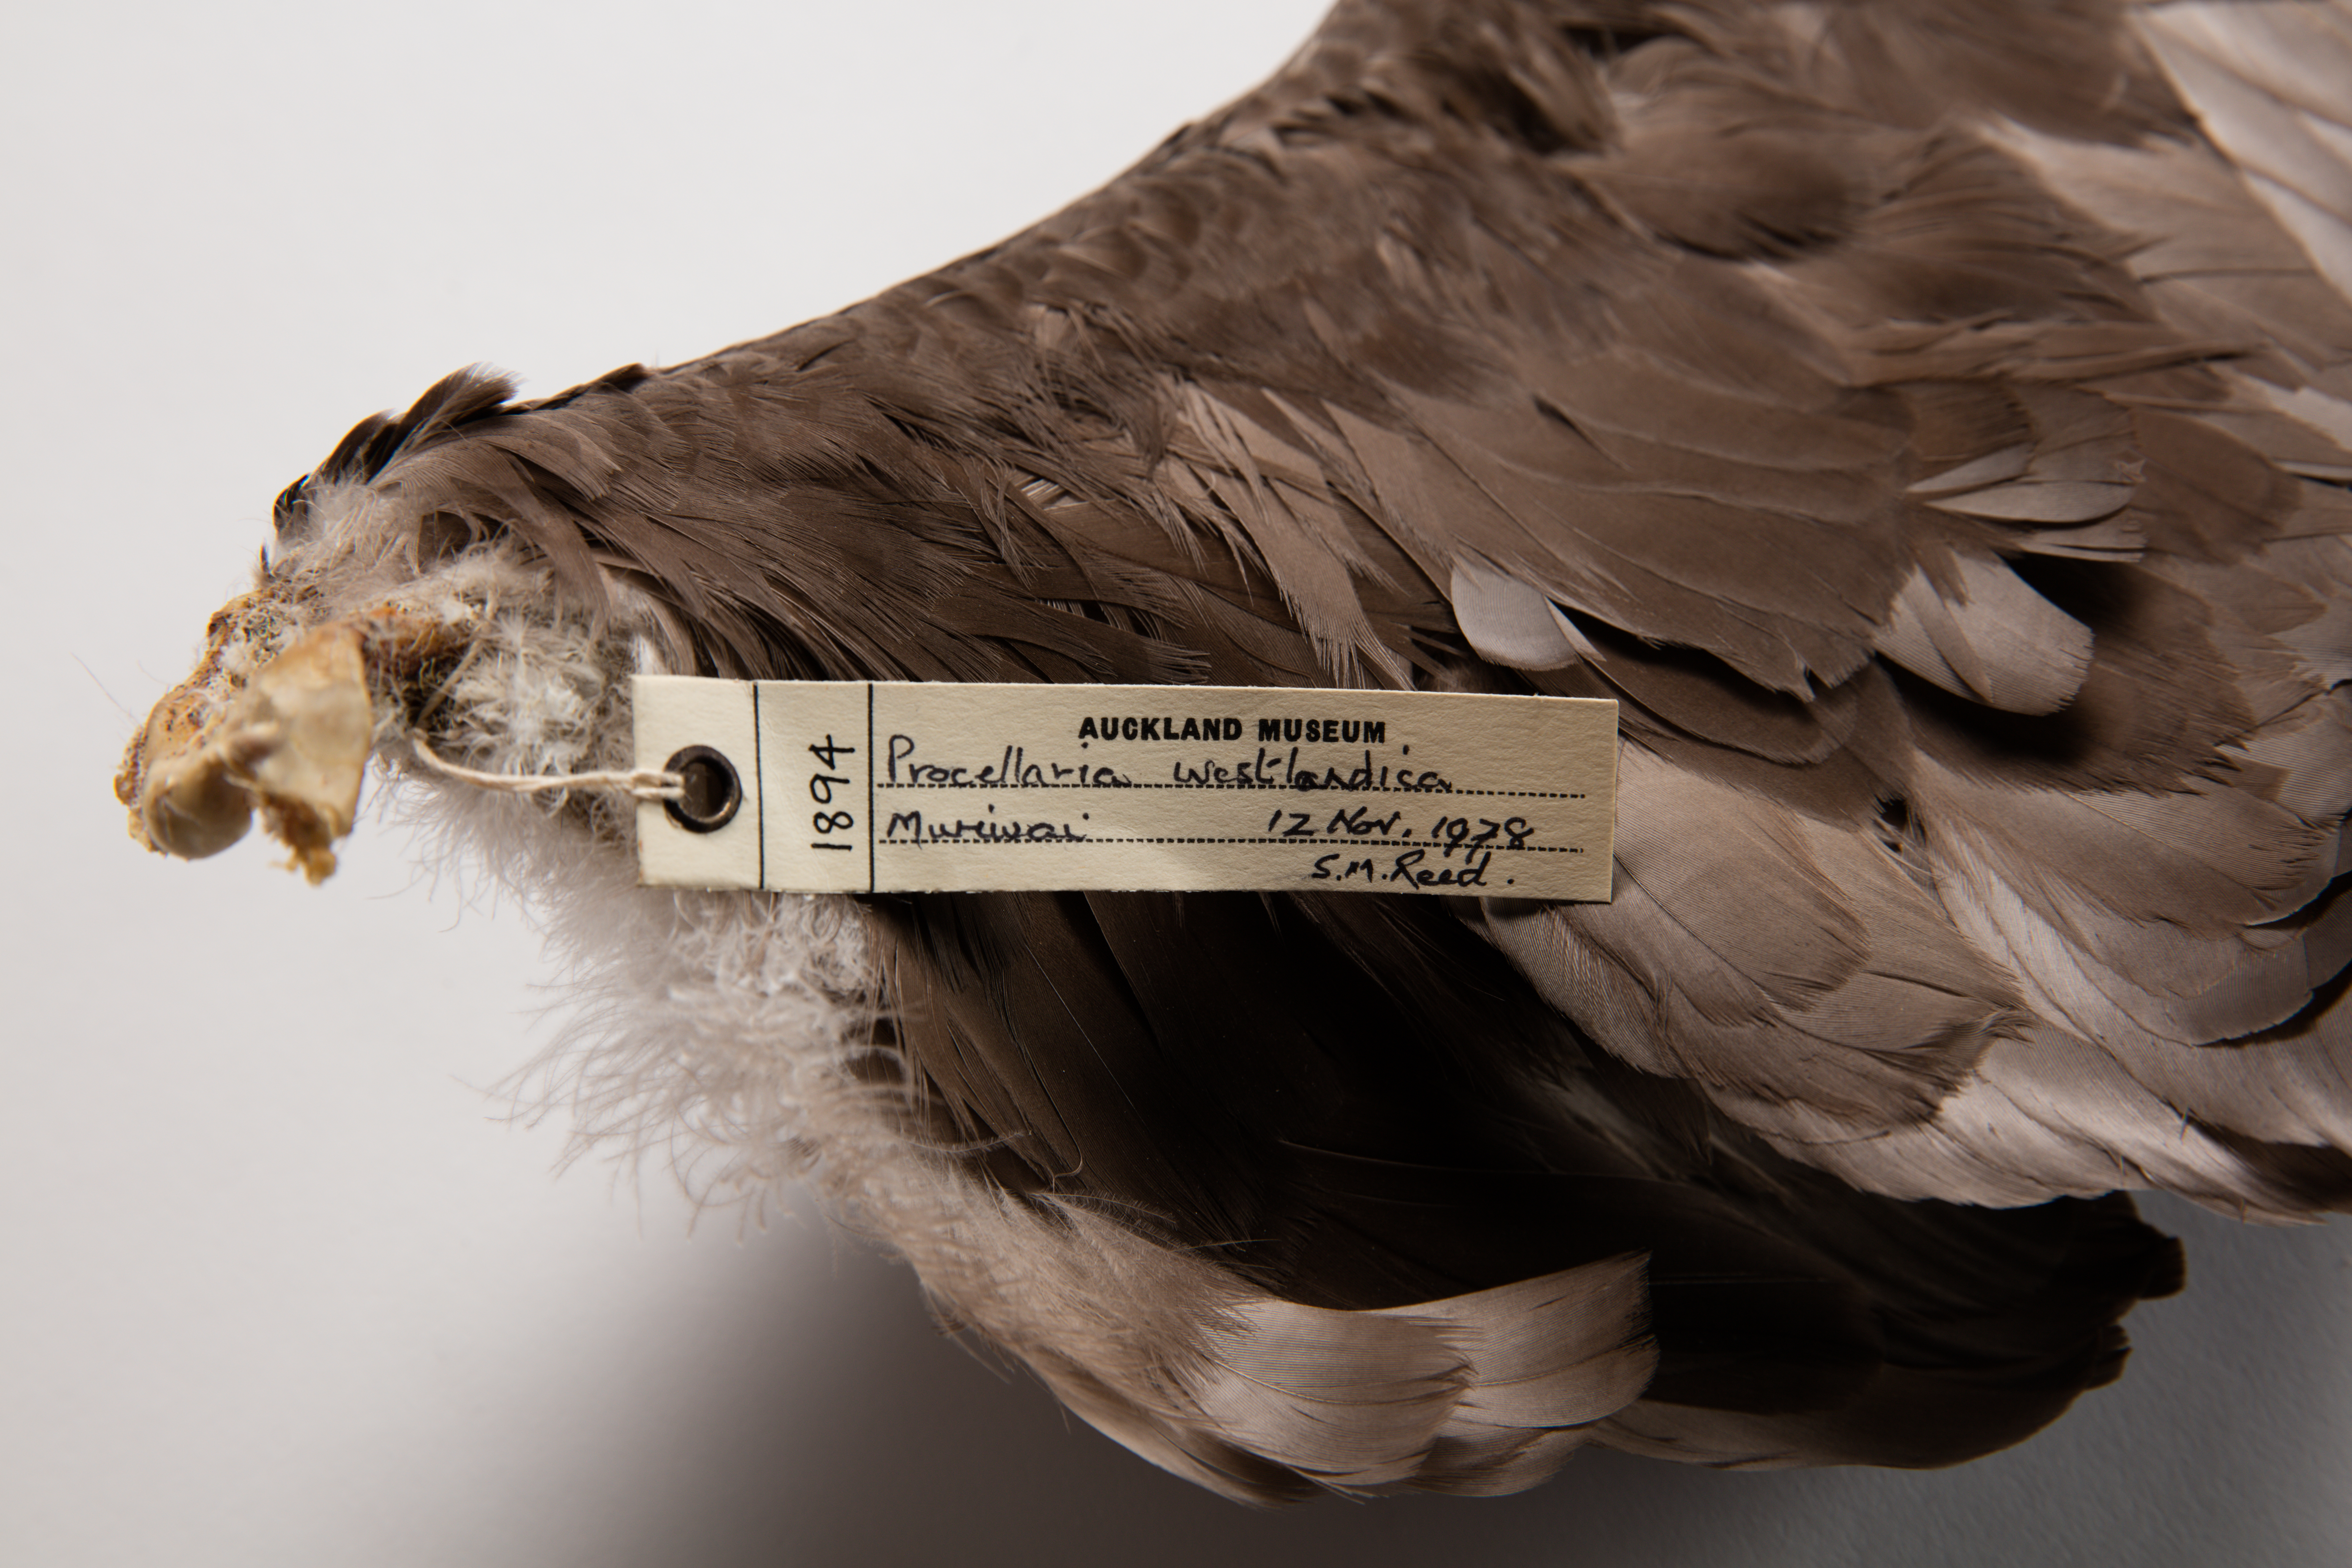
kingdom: Animalia
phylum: Chordata
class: Aves
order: Procellariiformes
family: Procellariidae
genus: Procellaria
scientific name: Procellaria westlandica
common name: Westland petrel
